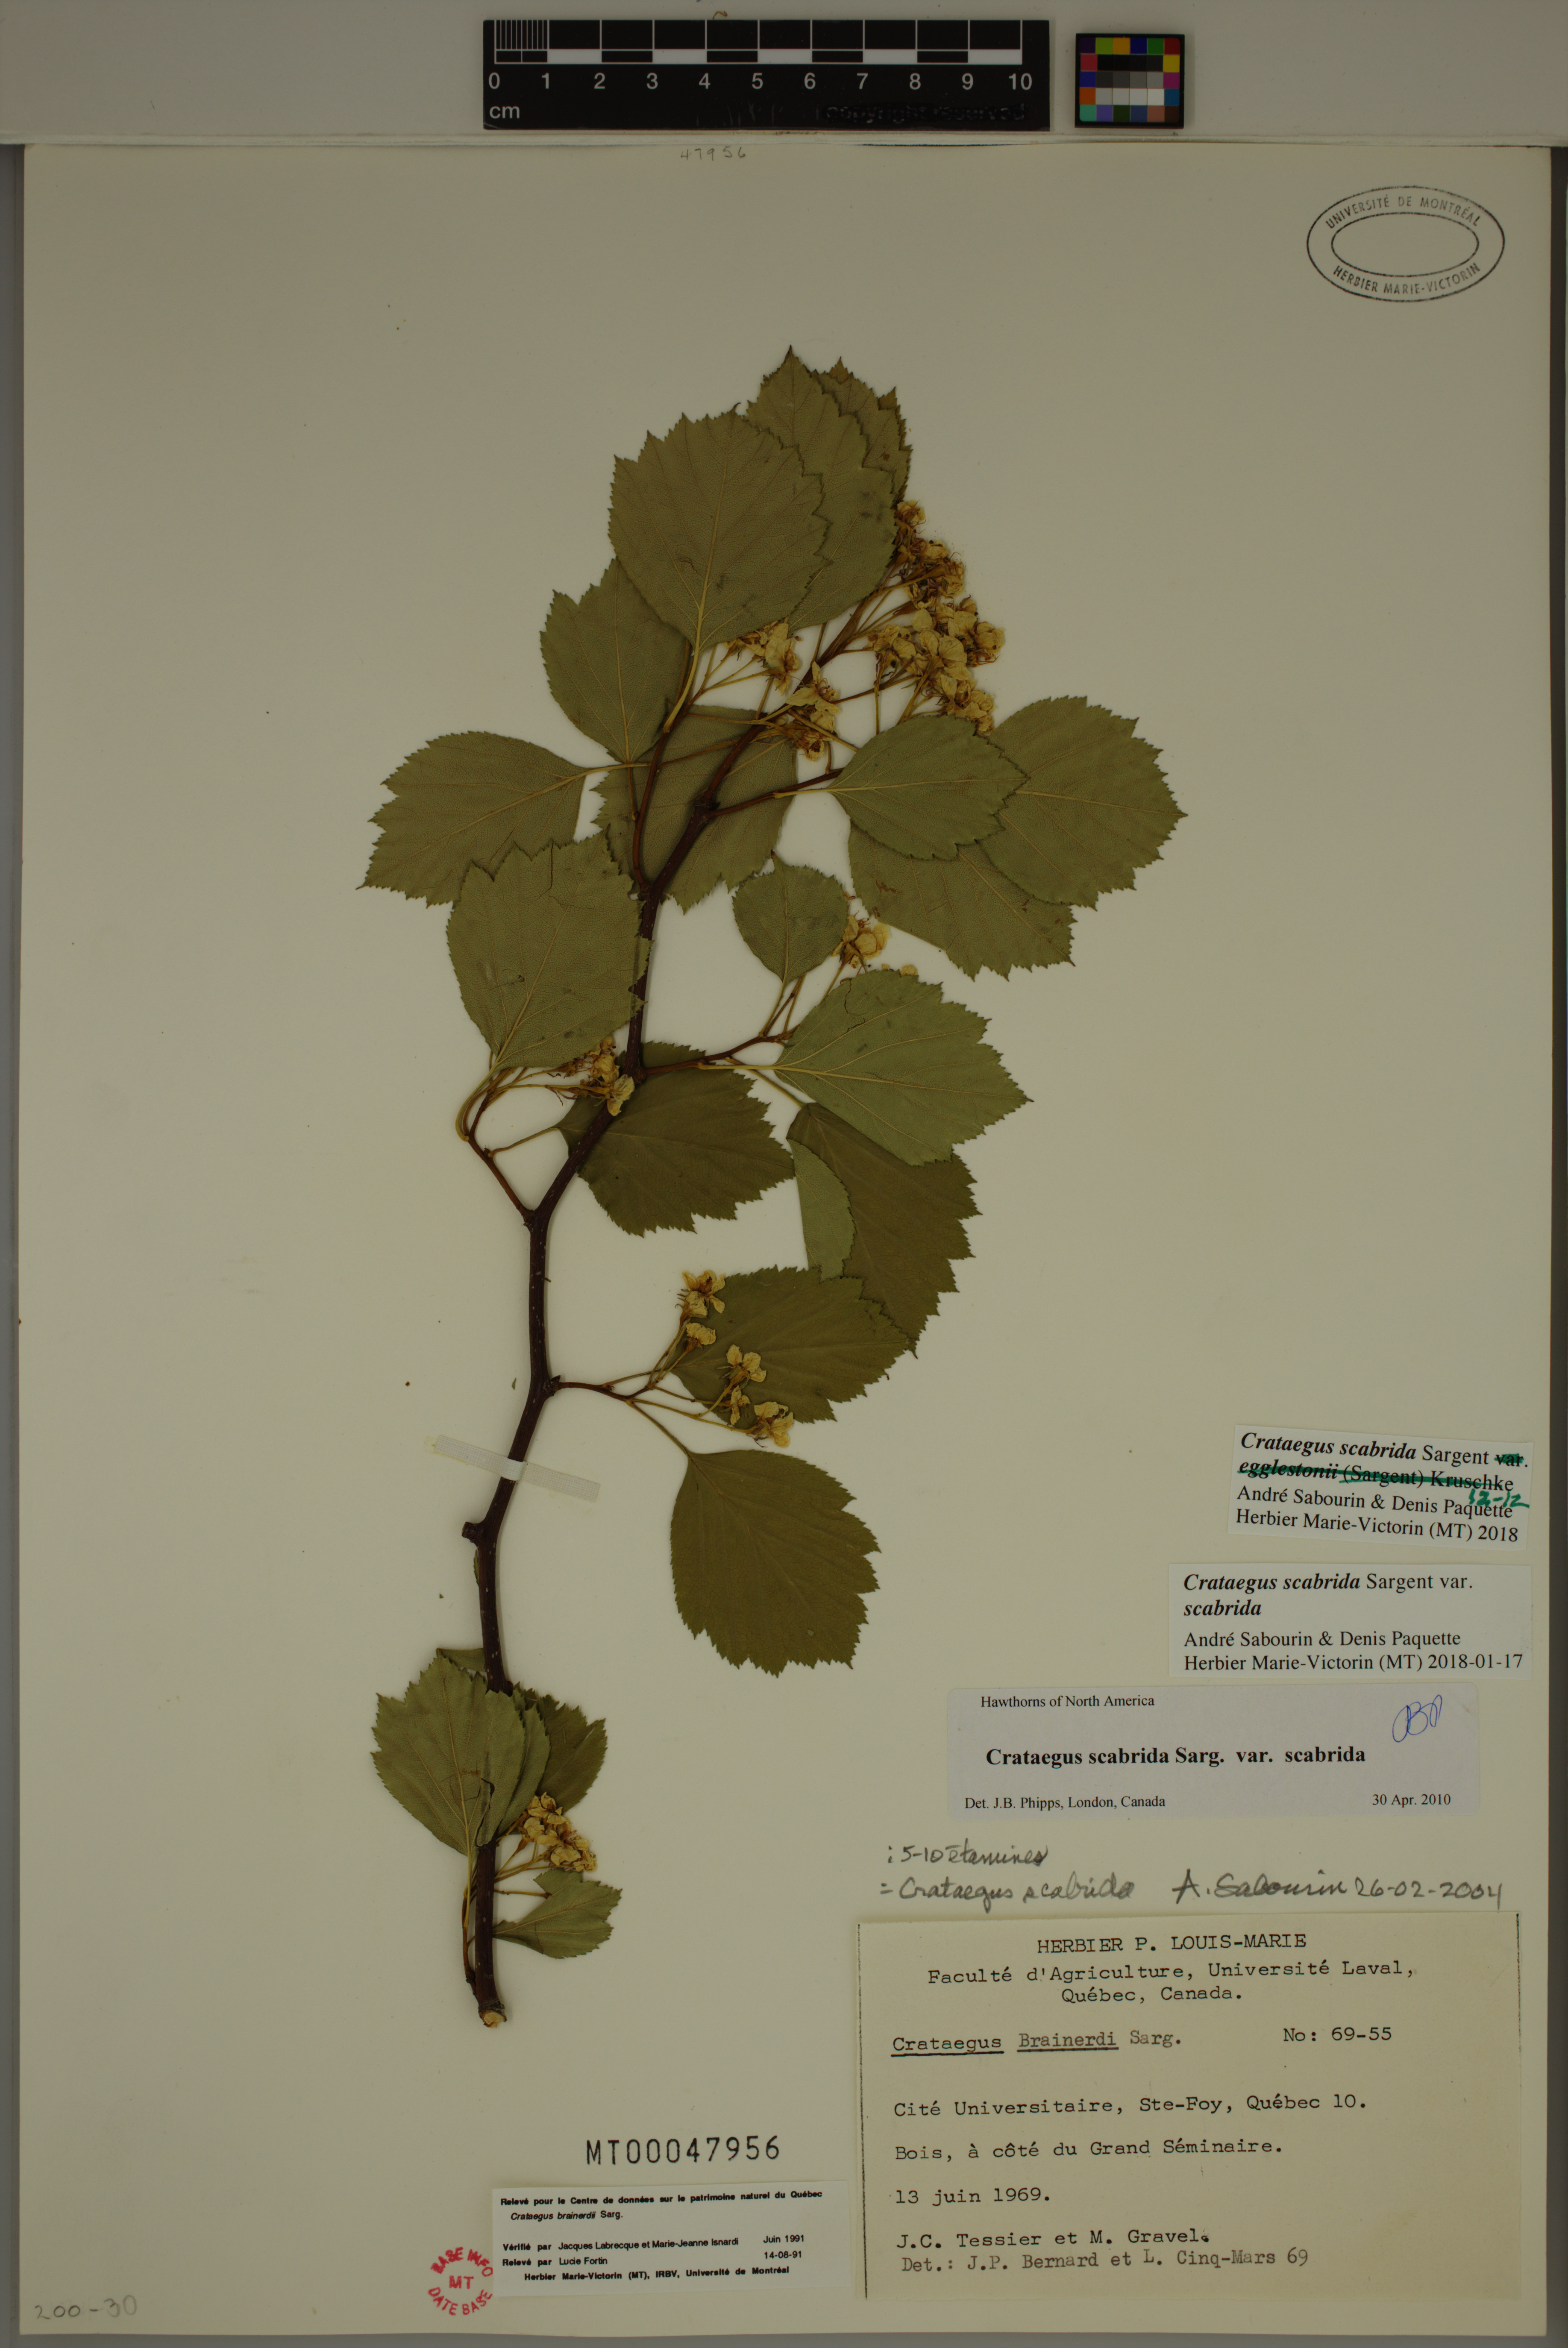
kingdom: Plantae
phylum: Tracheophyta
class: Magnoliopsida
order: Rosales
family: Rosaceae
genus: Crataegus
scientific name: Crataegus scabrida
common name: Rough hawthorn
